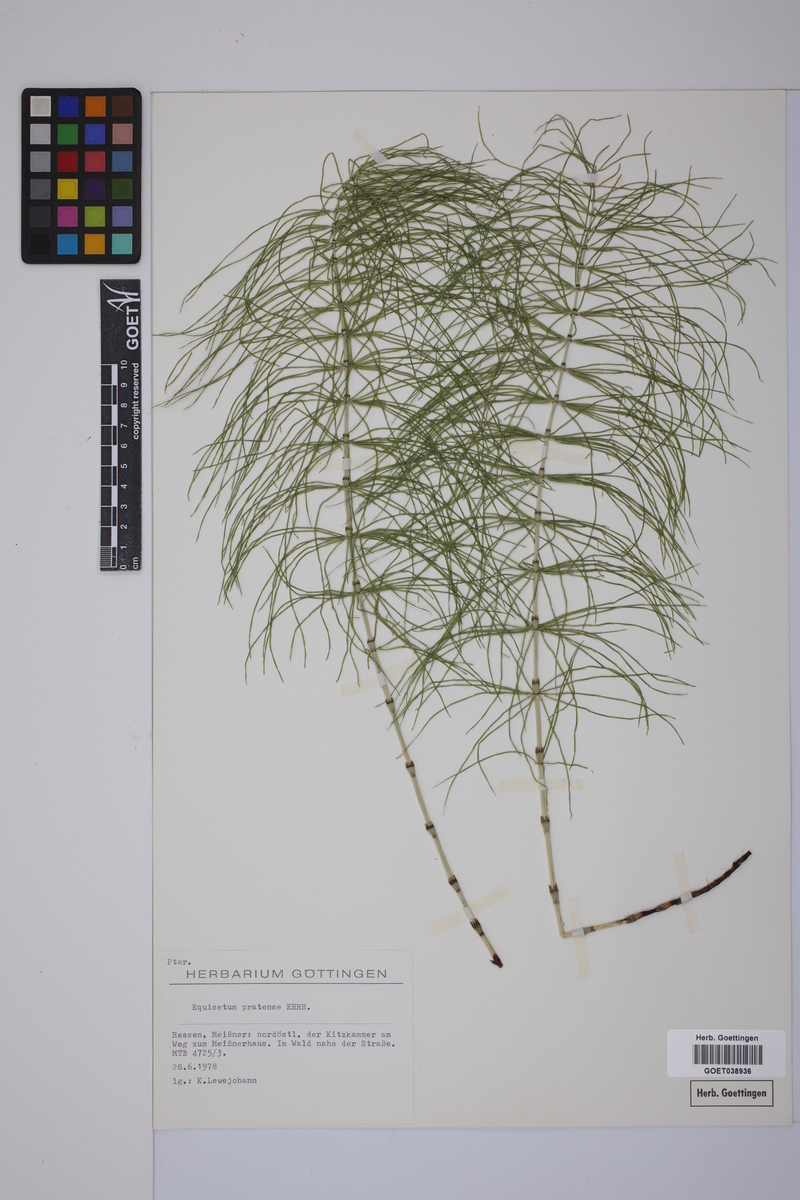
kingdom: Plantae
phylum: Tracheophyta
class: Polypodiopsida
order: Equisetales
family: Equisetaceae
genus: Equisetum
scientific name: Equisetum pratense
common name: Meadow horsetail
